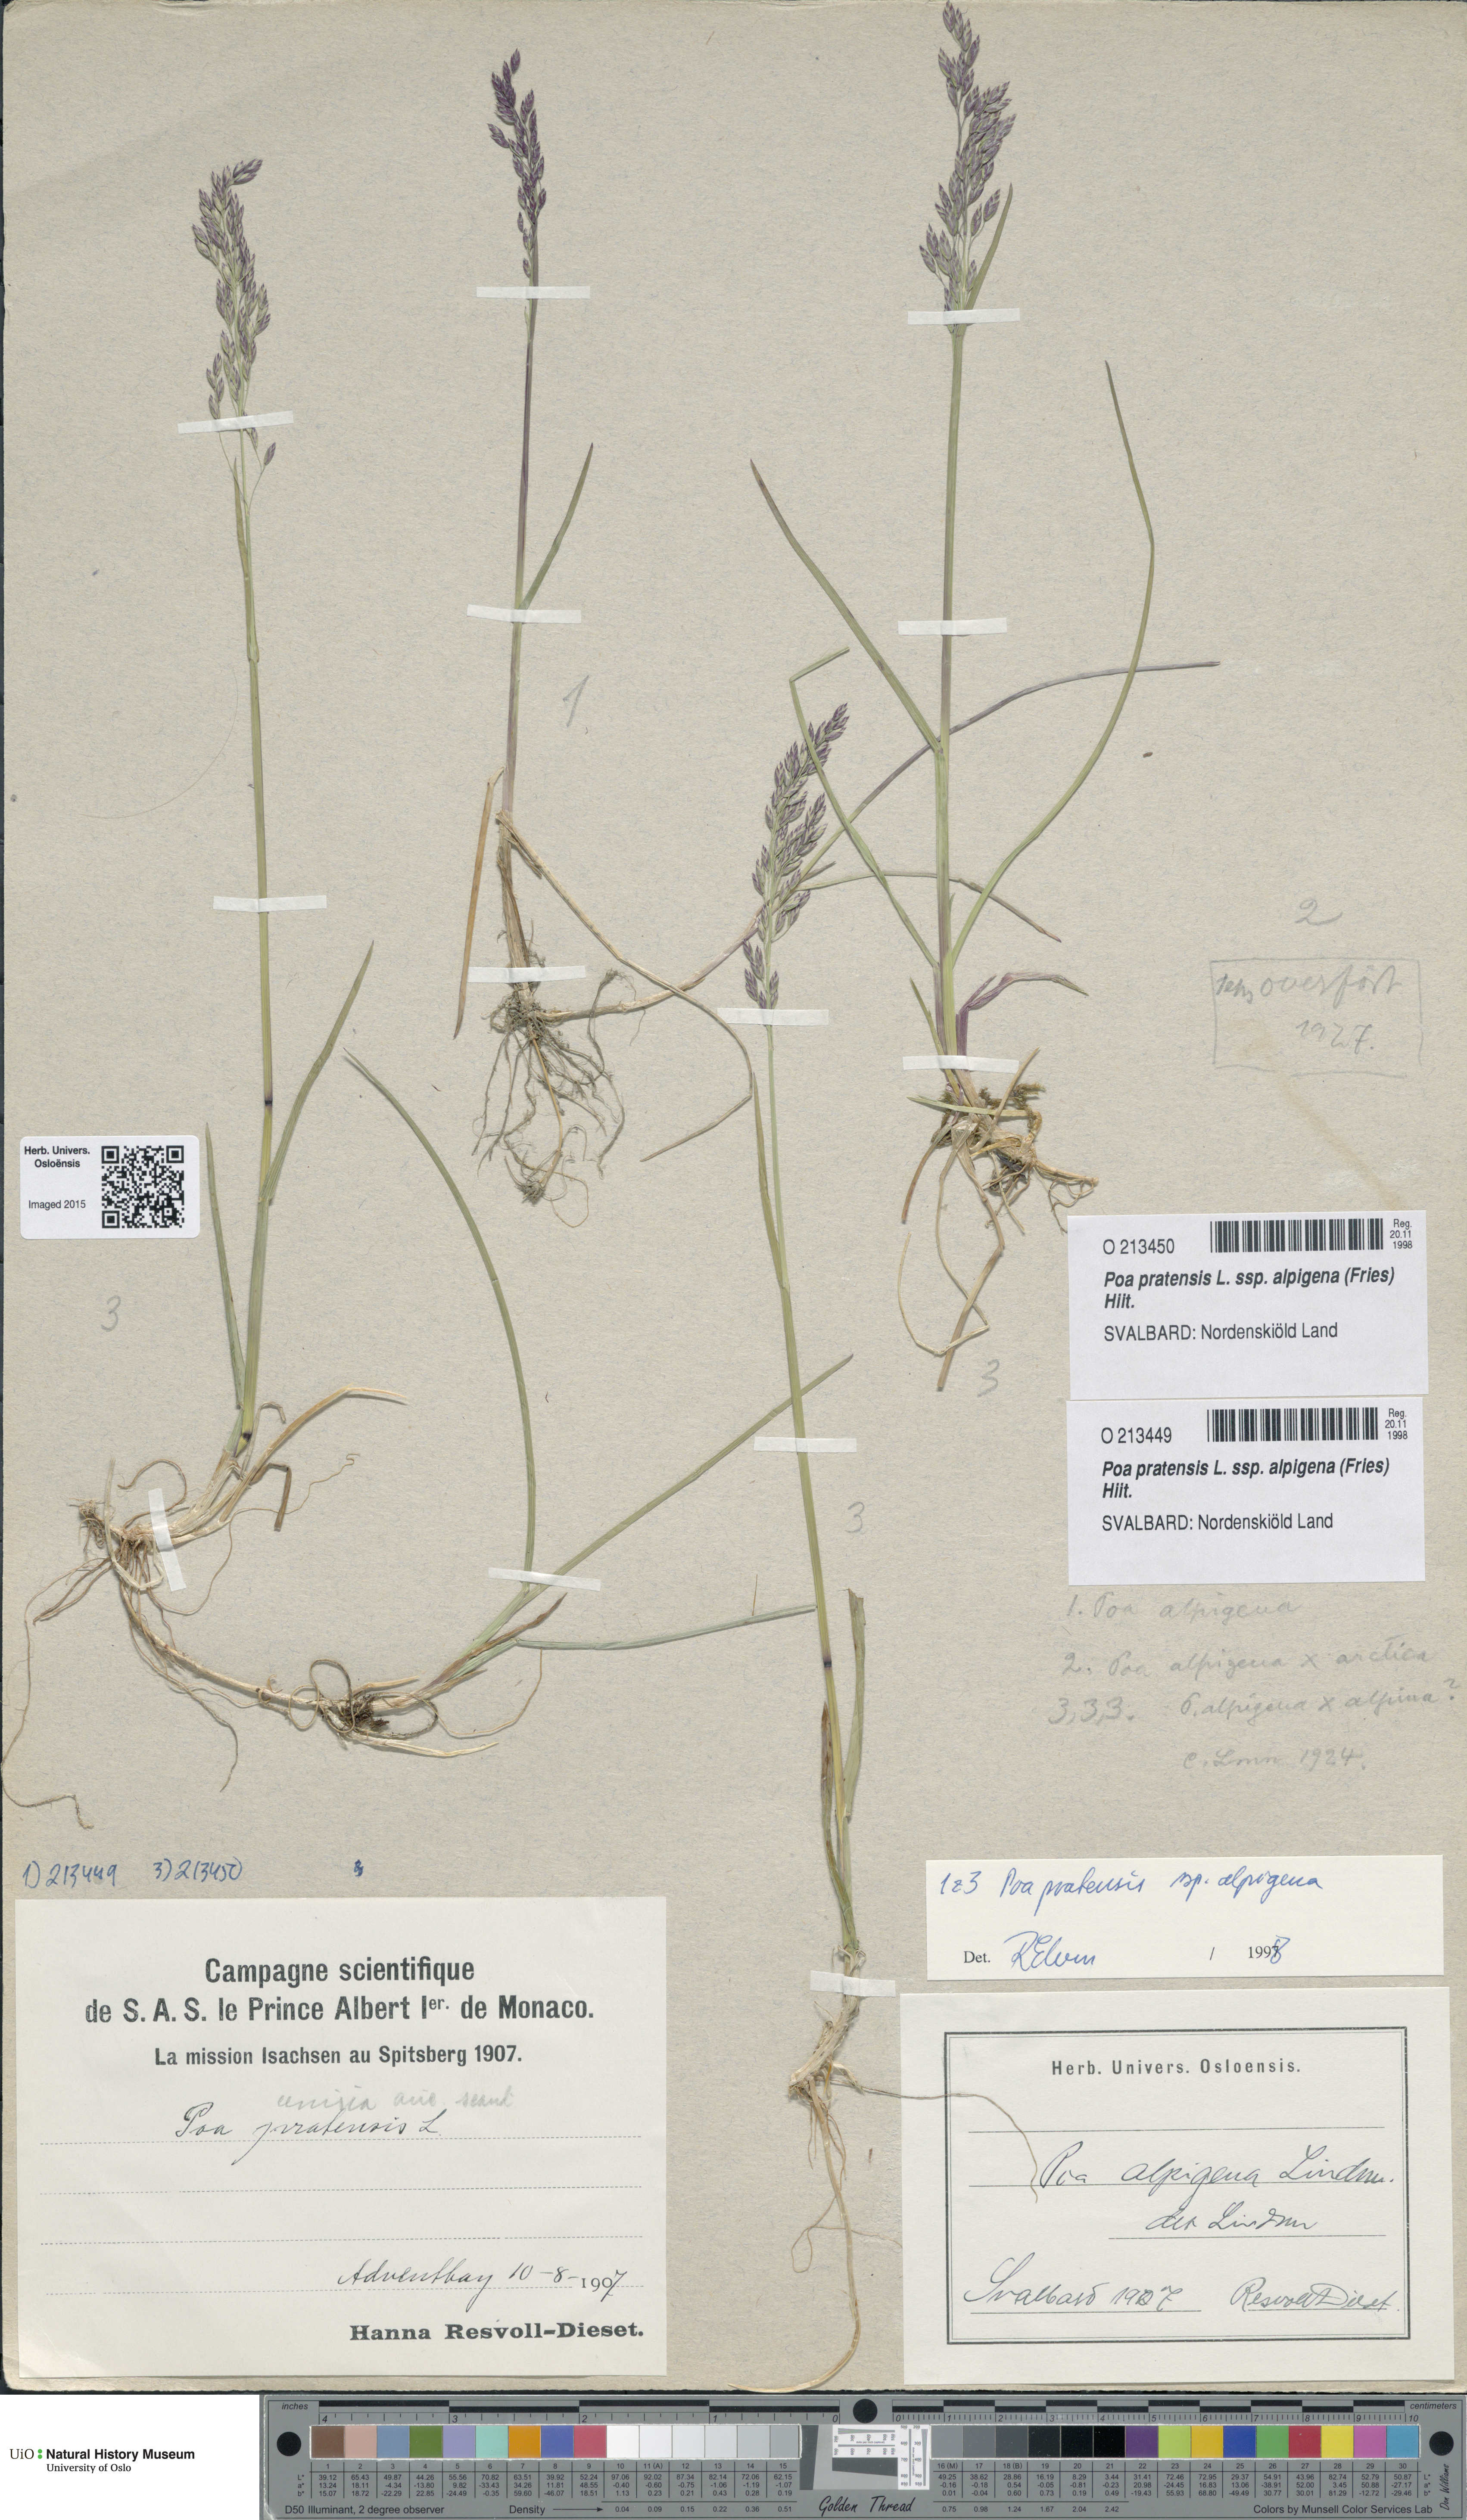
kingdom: Plantae
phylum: Tracheophyta
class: Liliopsida
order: Poales
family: Poaceae
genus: Poa
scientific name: Poa alpigena
